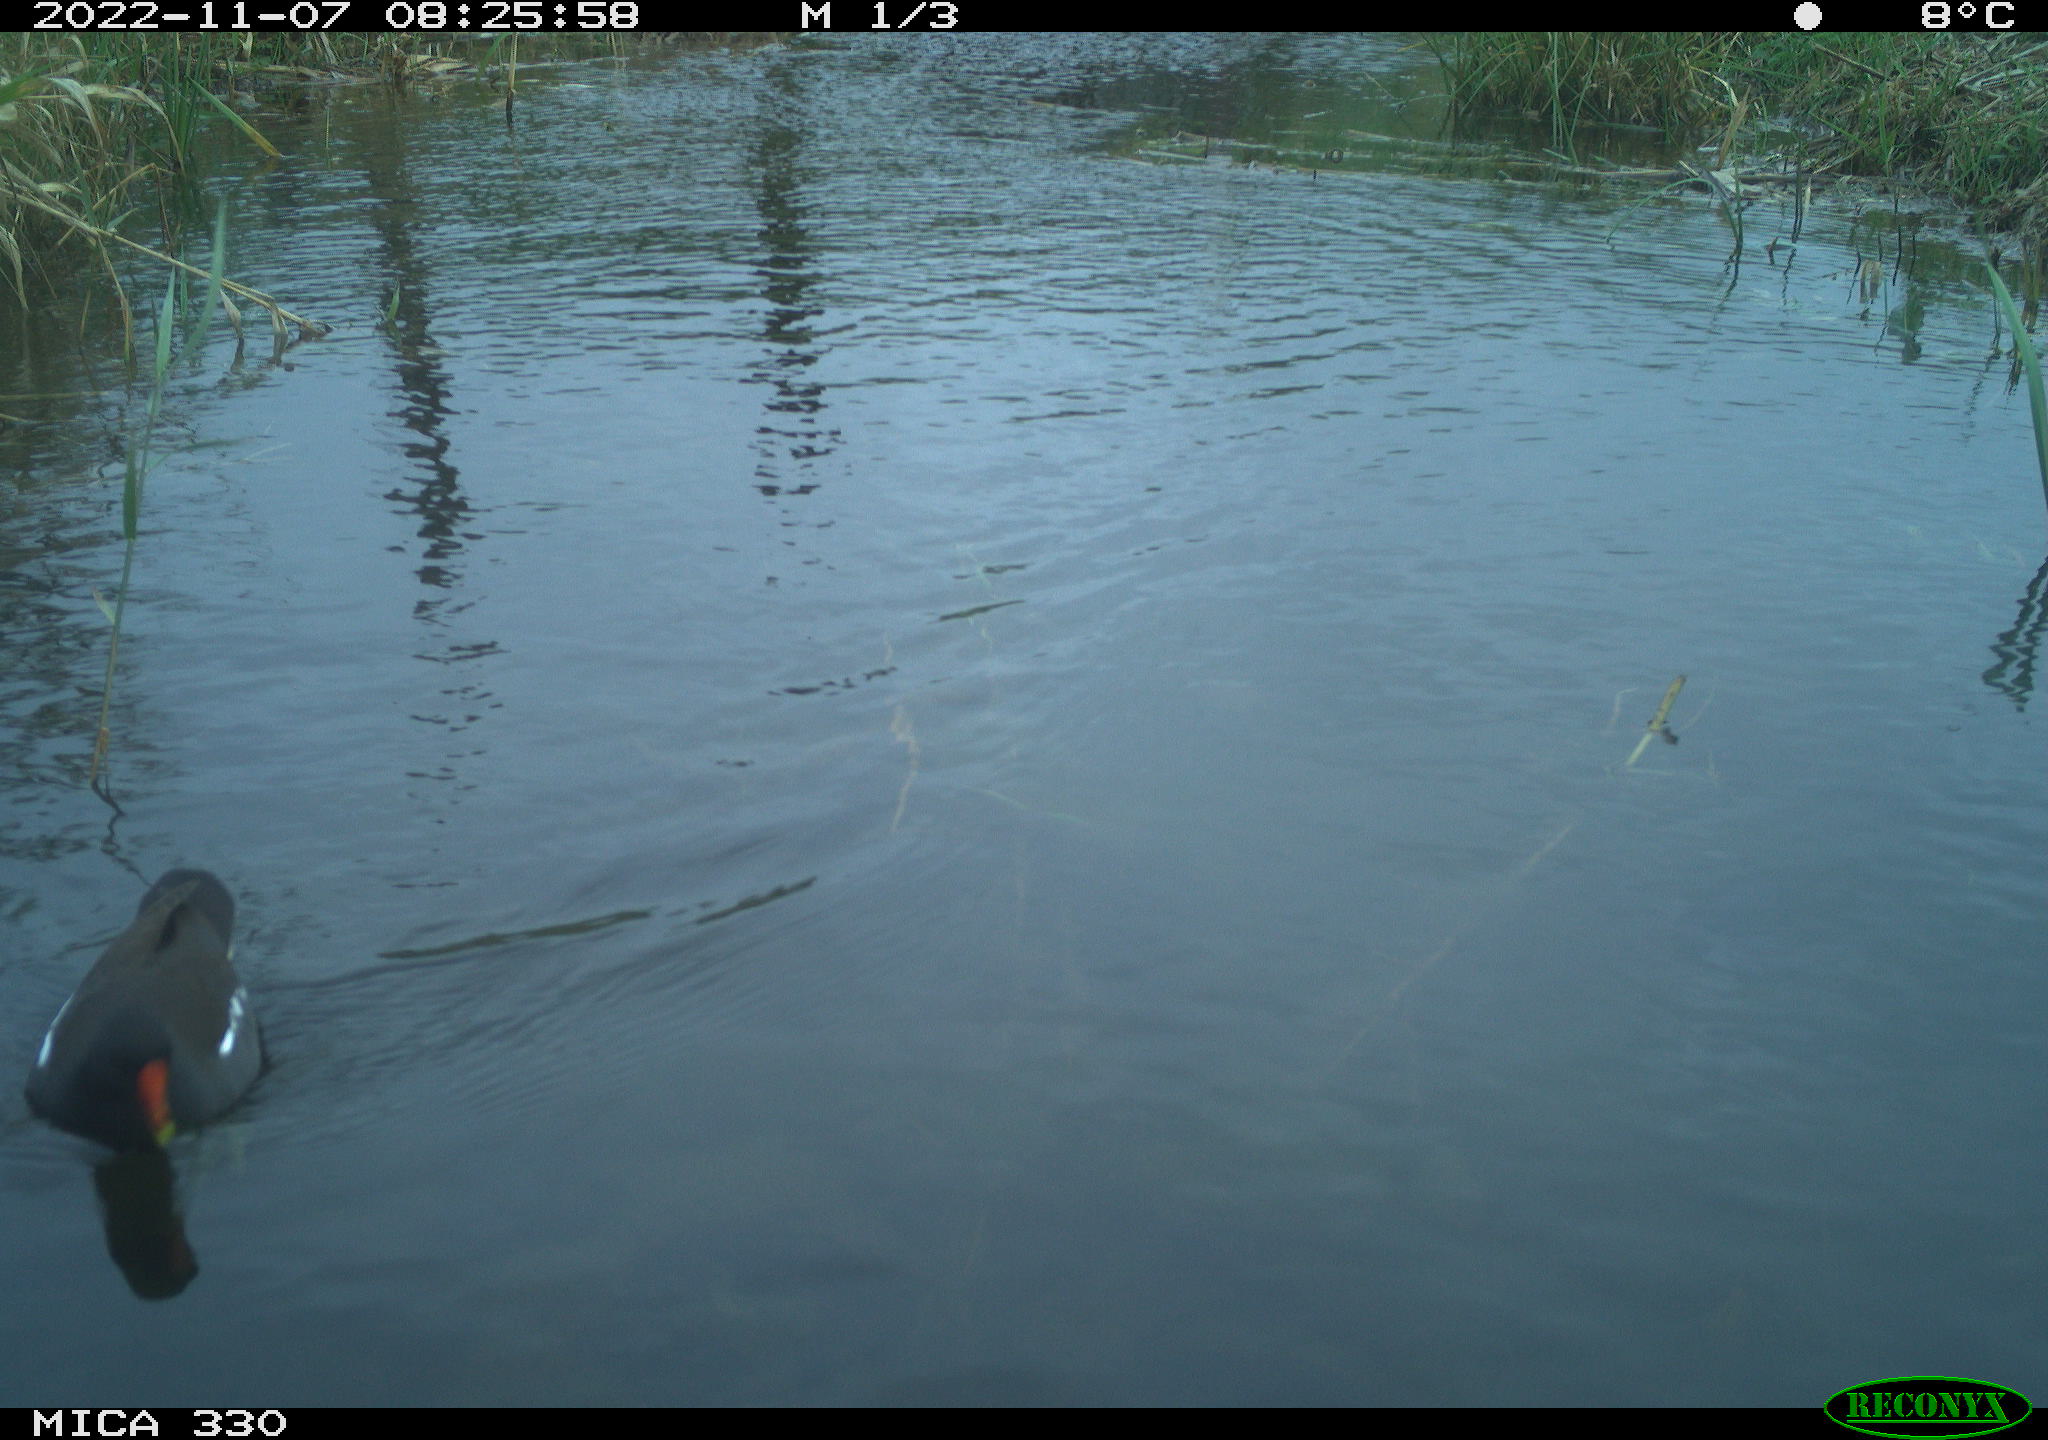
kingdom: Animalia
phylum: Chordata
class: Aves
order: Gruiformes
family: Rallidae
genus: Gallinula
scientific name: Gallinula chloropus
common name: Common moorhen
